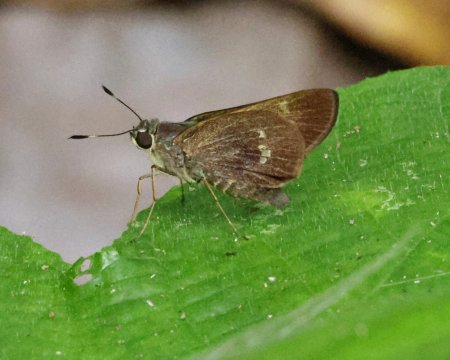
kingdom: Animalia
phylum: Arthropoda
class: Insecta
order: Lepidoptera
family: Hesperiidae
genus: Decinea
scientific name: Decinea decinea
